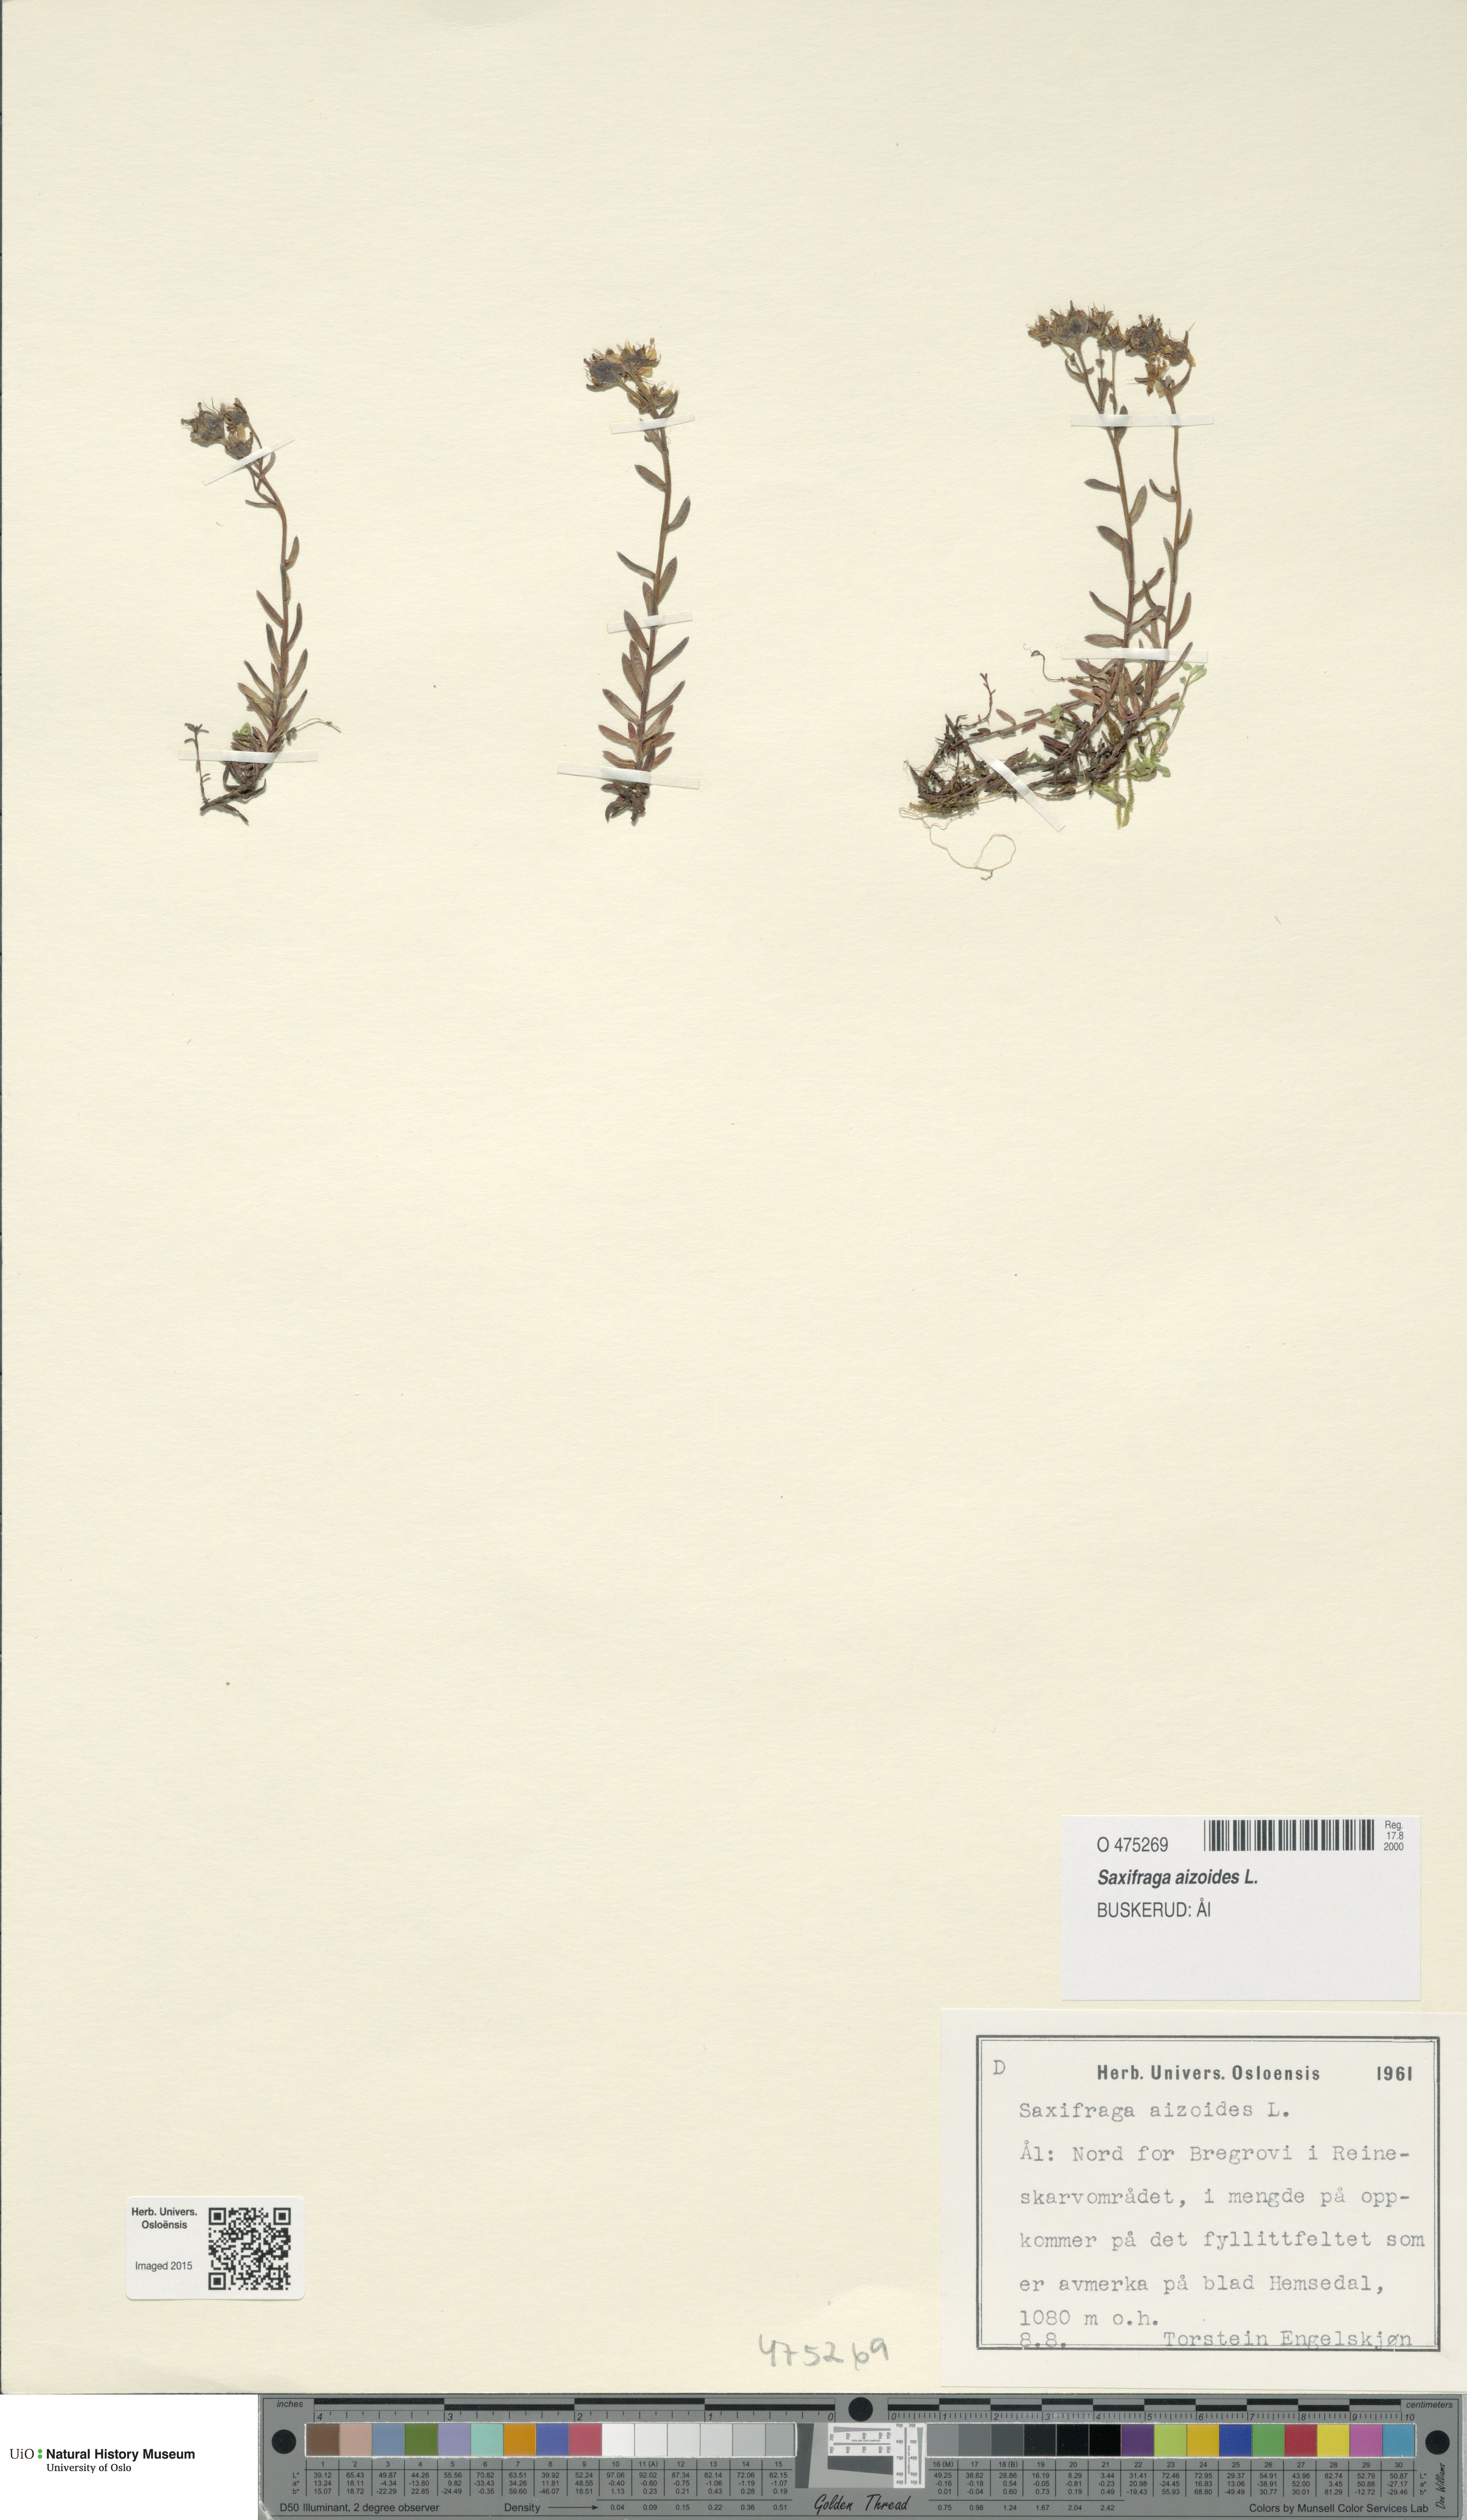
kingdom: Plantae
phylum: Tracheophyta
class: Magnoliopsida
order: Saxifragales
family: Saxifragaceae
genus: Saxifraga
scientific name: Saxifraga aizoides
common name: Yellow mountain saxifrage
